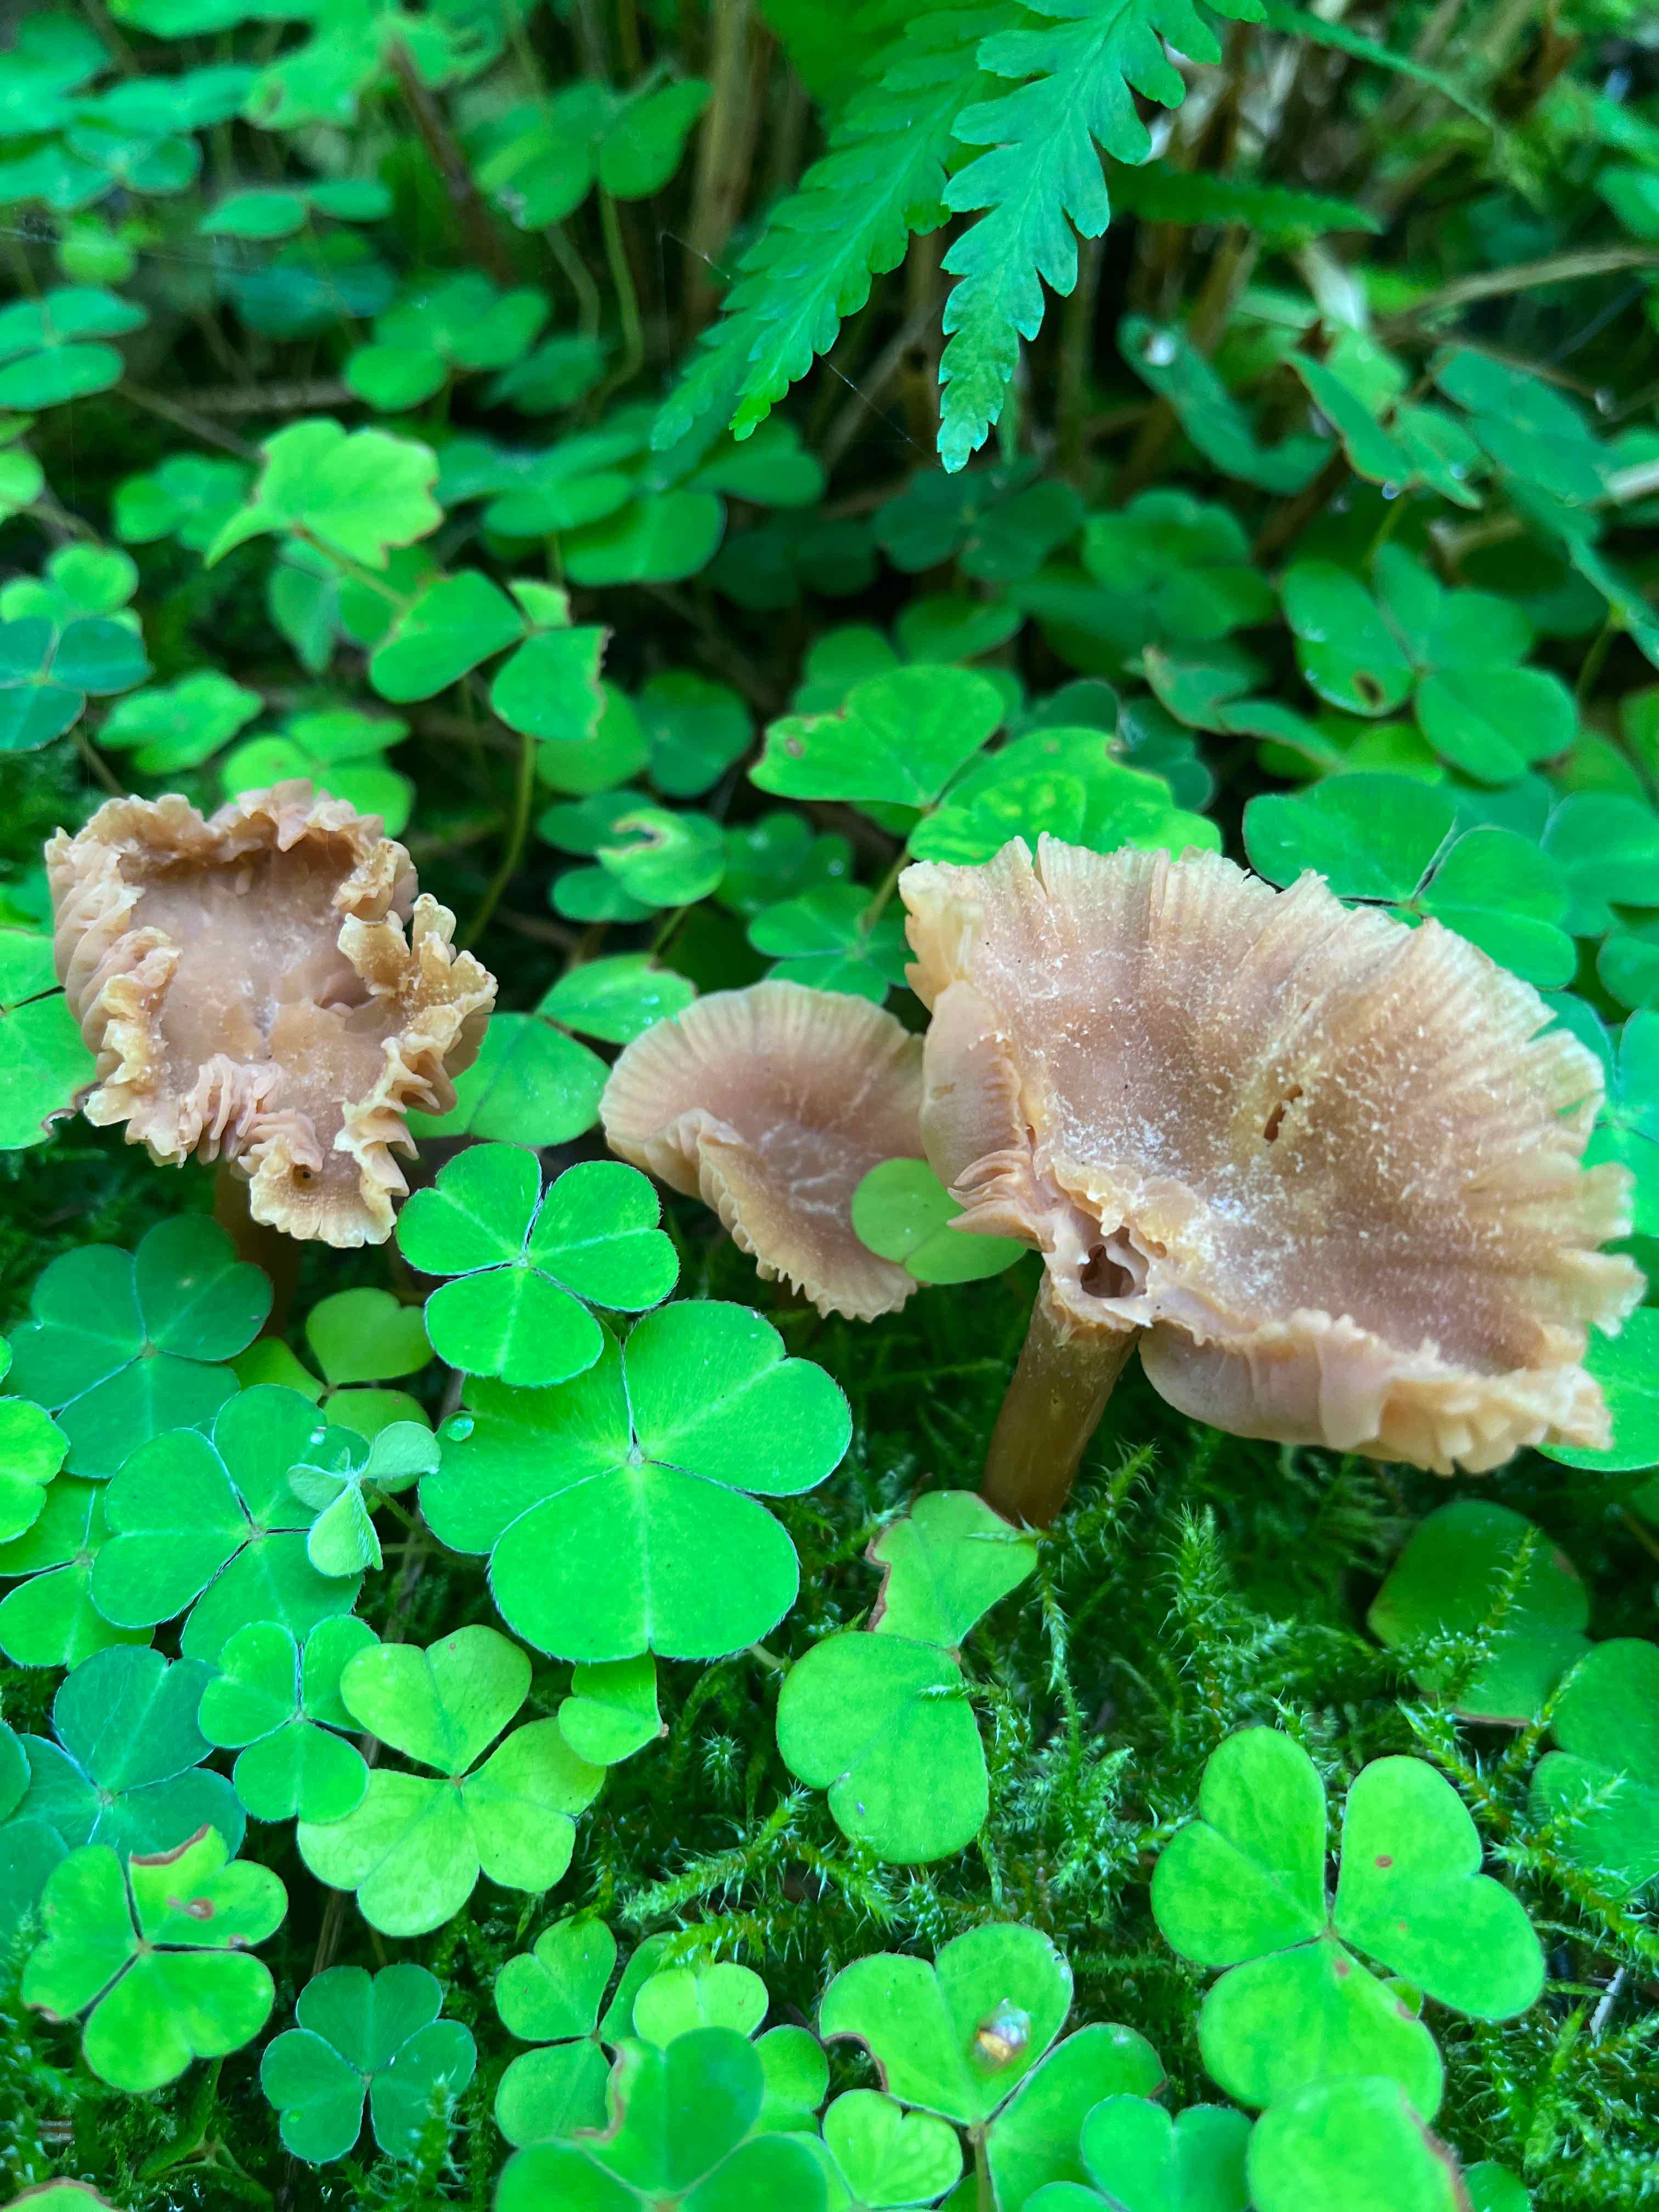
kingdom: Fungi
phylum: Basidiomycota
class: Agaricomycetes
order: Agaricales
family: Hydnangiaceae
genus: Laccaria
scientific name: Laccaria
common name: ametysthat
